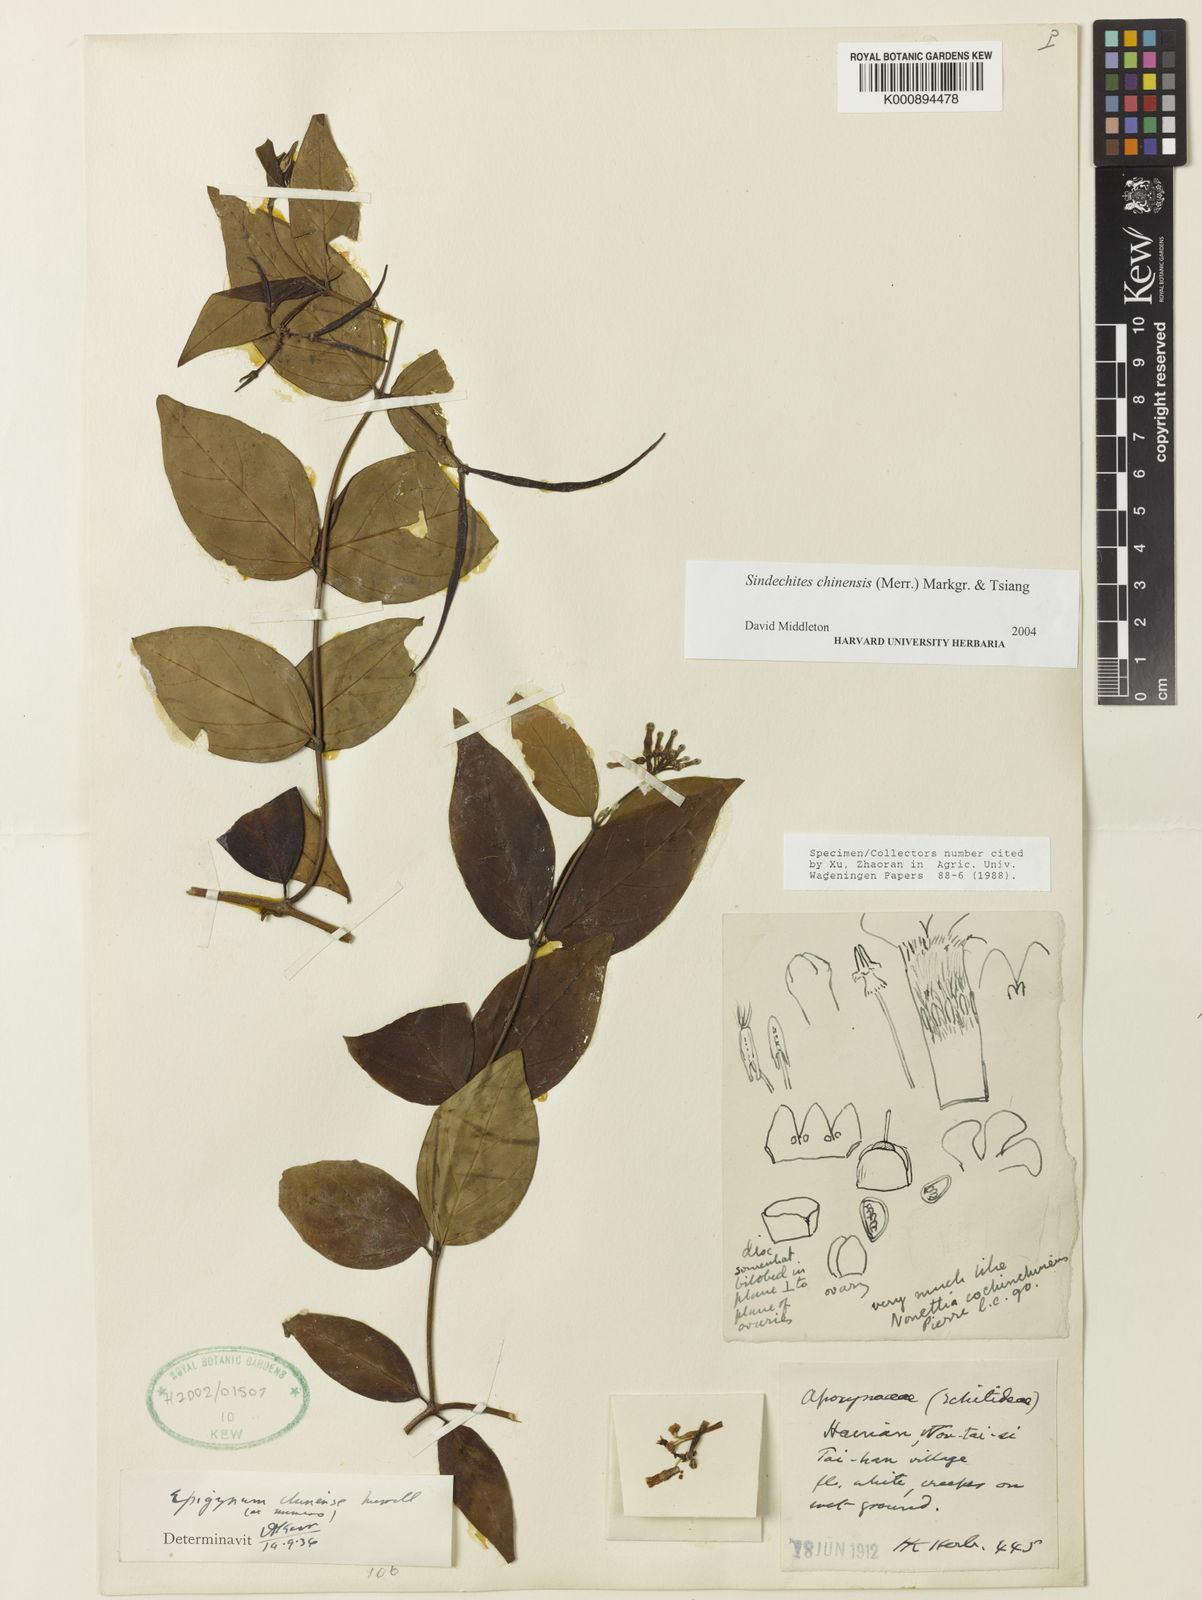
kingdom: Plantae
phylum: Tracheophyta
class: Magnoliopsida
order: Gentianales
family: Apocynaceae
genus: Streptoechites
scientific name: Streptoechites chinensis
